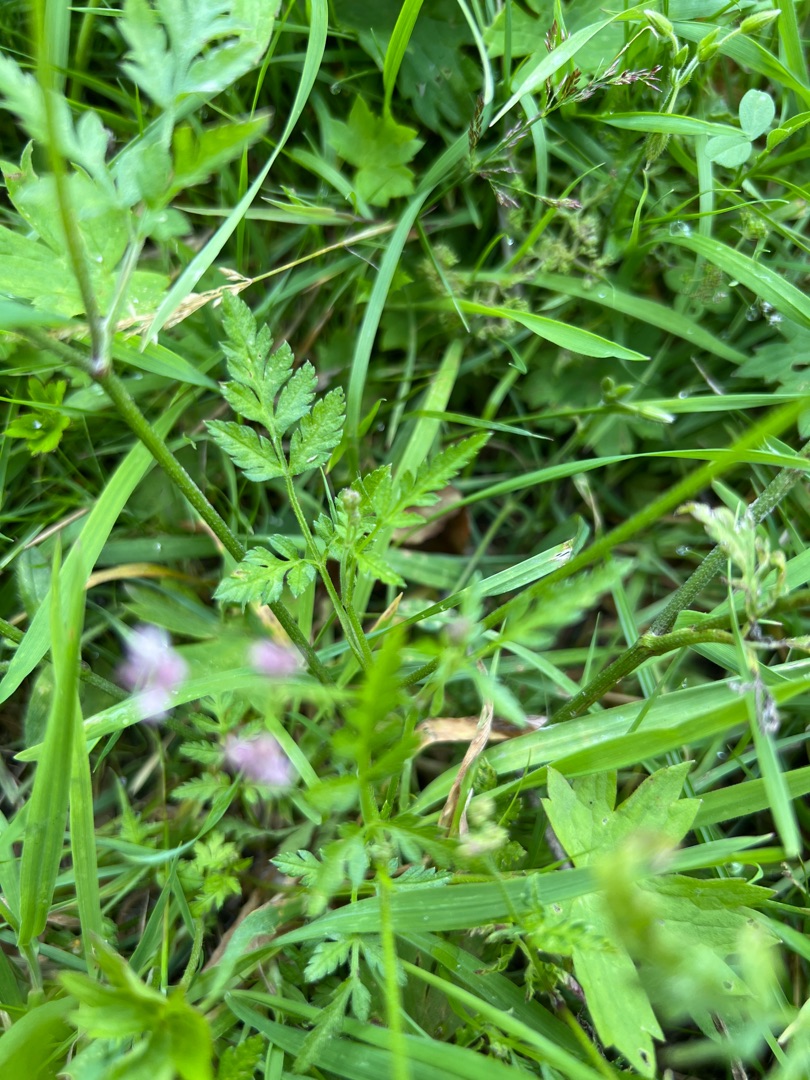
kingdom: Plantae
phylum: Tracheophyta
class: Magnoliopsida
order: Apiales
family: Apiaceae
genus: Torilis
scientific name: Torilis japonica
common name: Hvas randfrø
